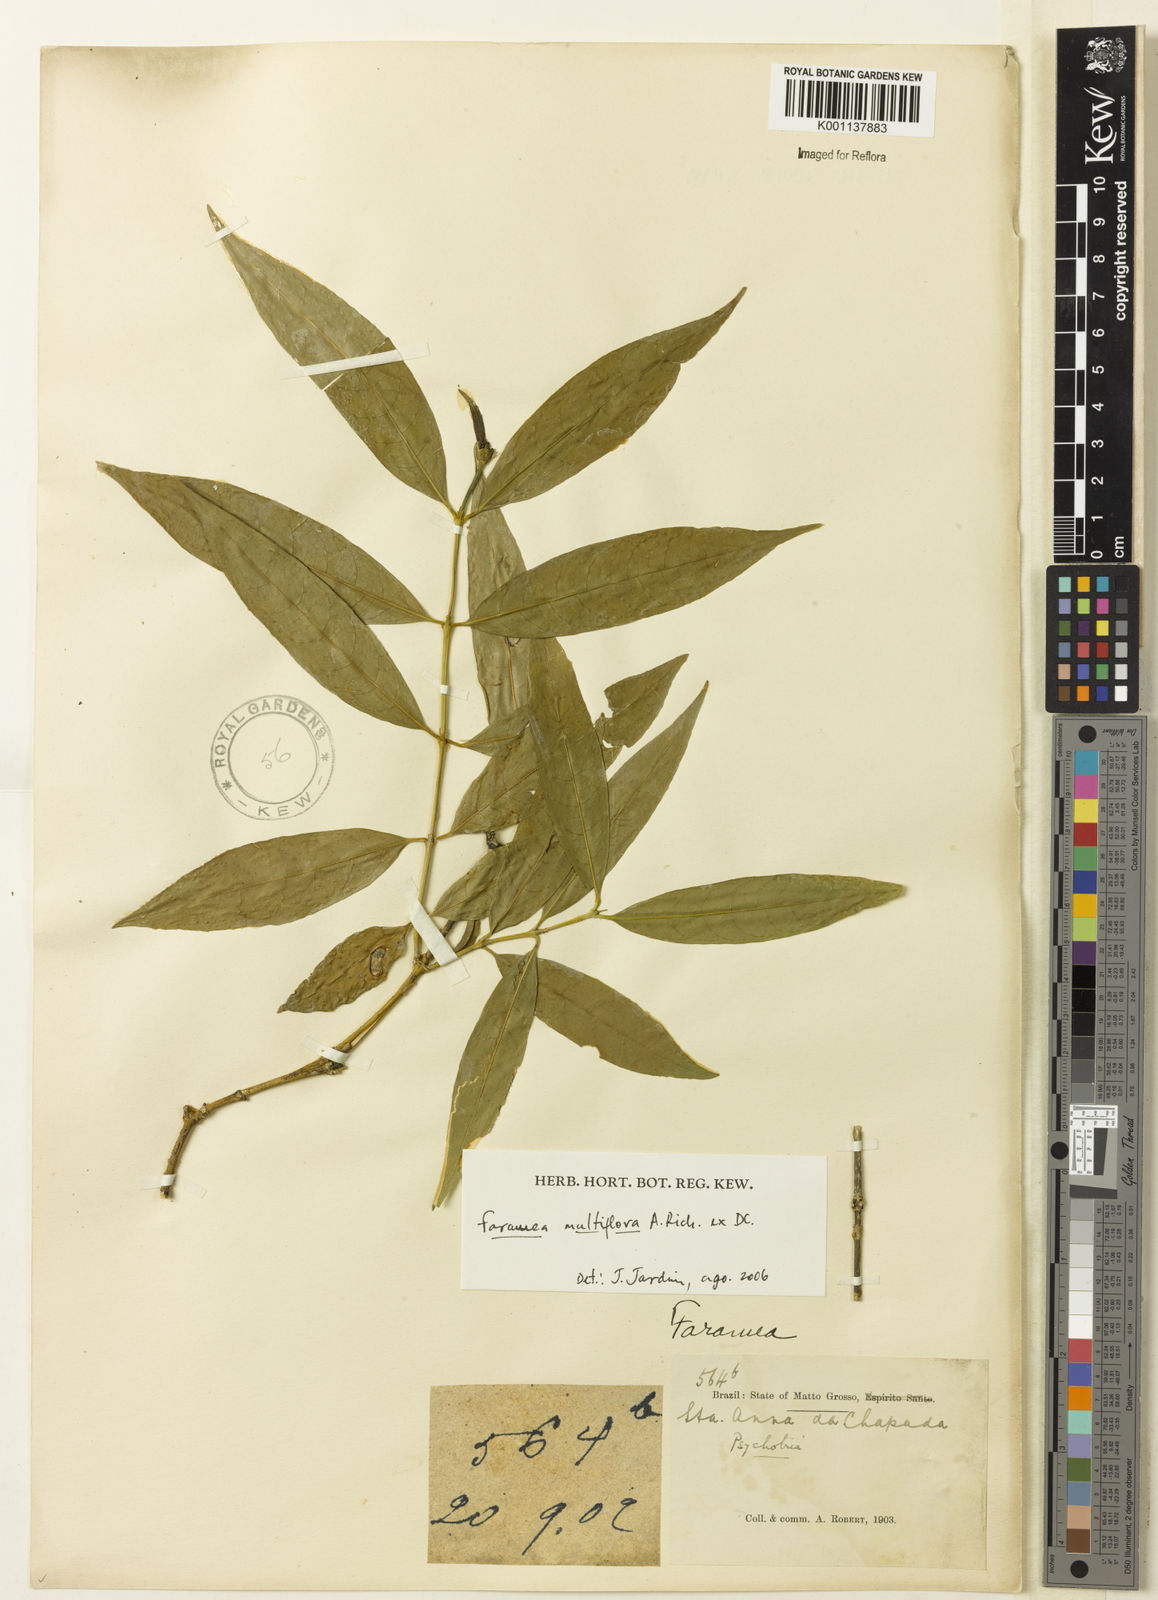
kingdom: Plantae
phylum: Tracheophyta
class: Magnoliopsida
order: Gentianales
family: Rubiaceae
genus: Faramea
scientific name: Faramea multiflora
